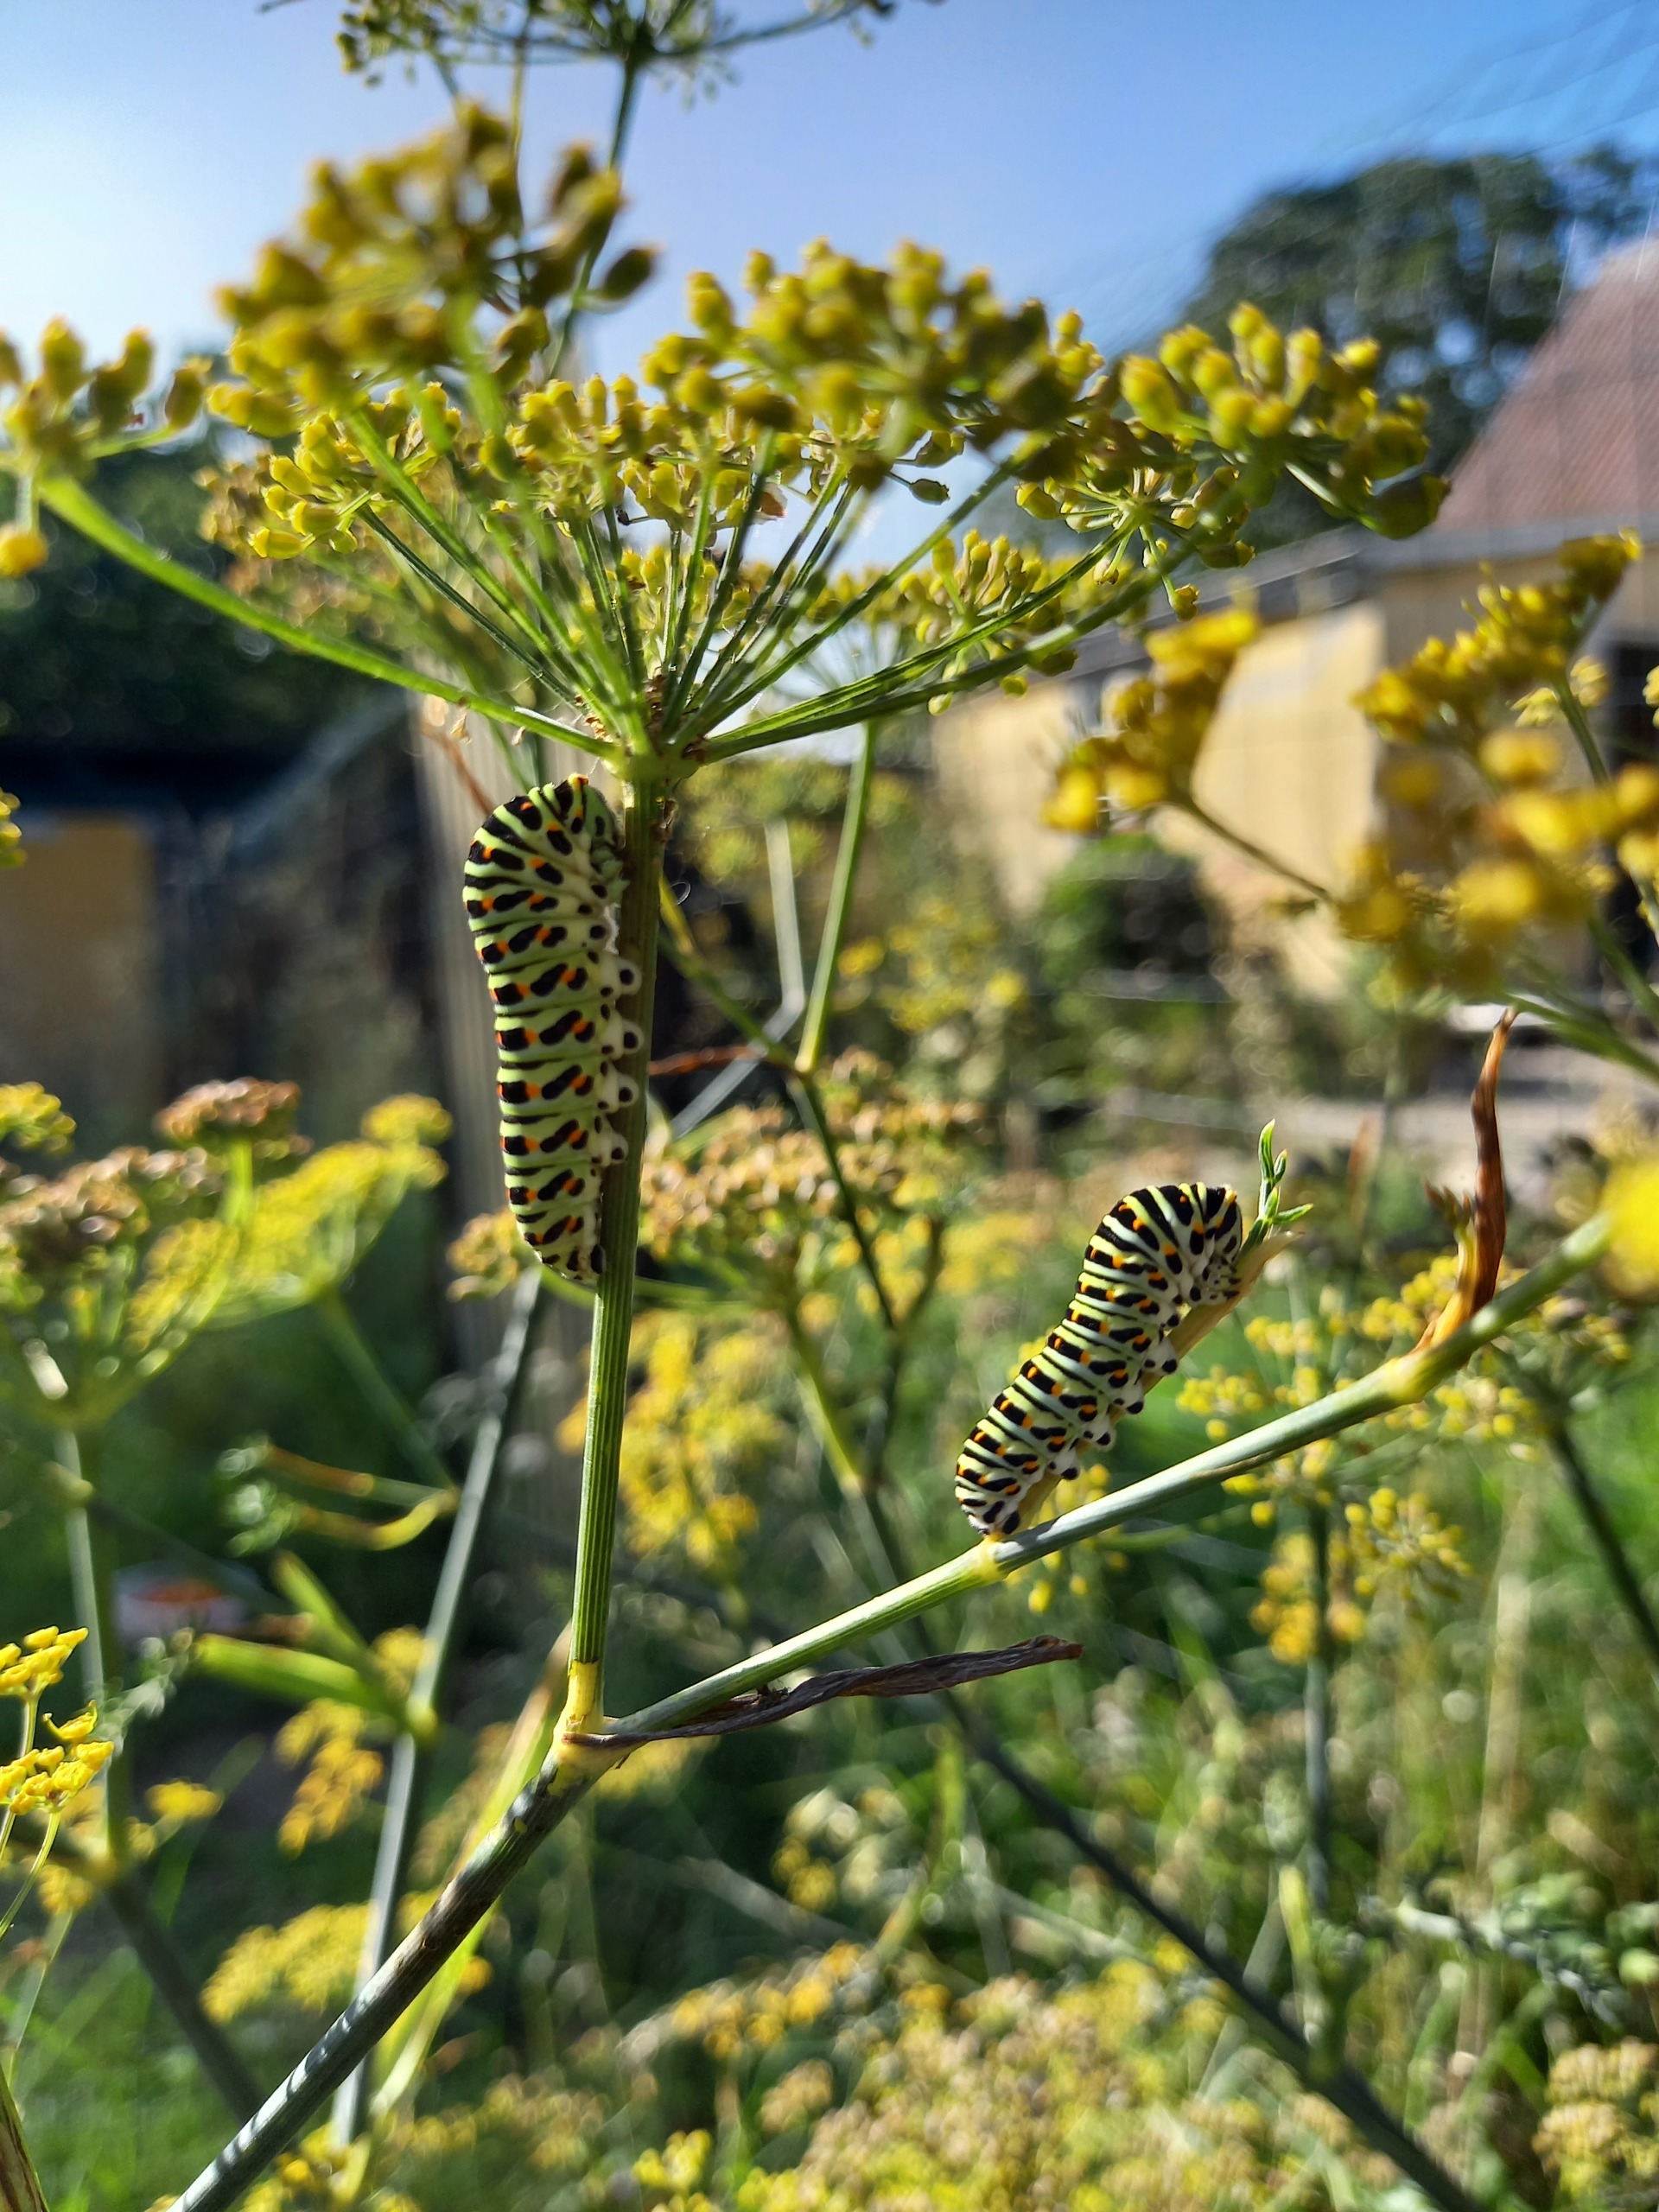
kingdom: Animalia
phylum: Arthropoda
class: Insecta
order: Lepidoptera
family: Papilionidae
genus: Papilio
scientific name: Papilio machaon
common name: Svalehale
